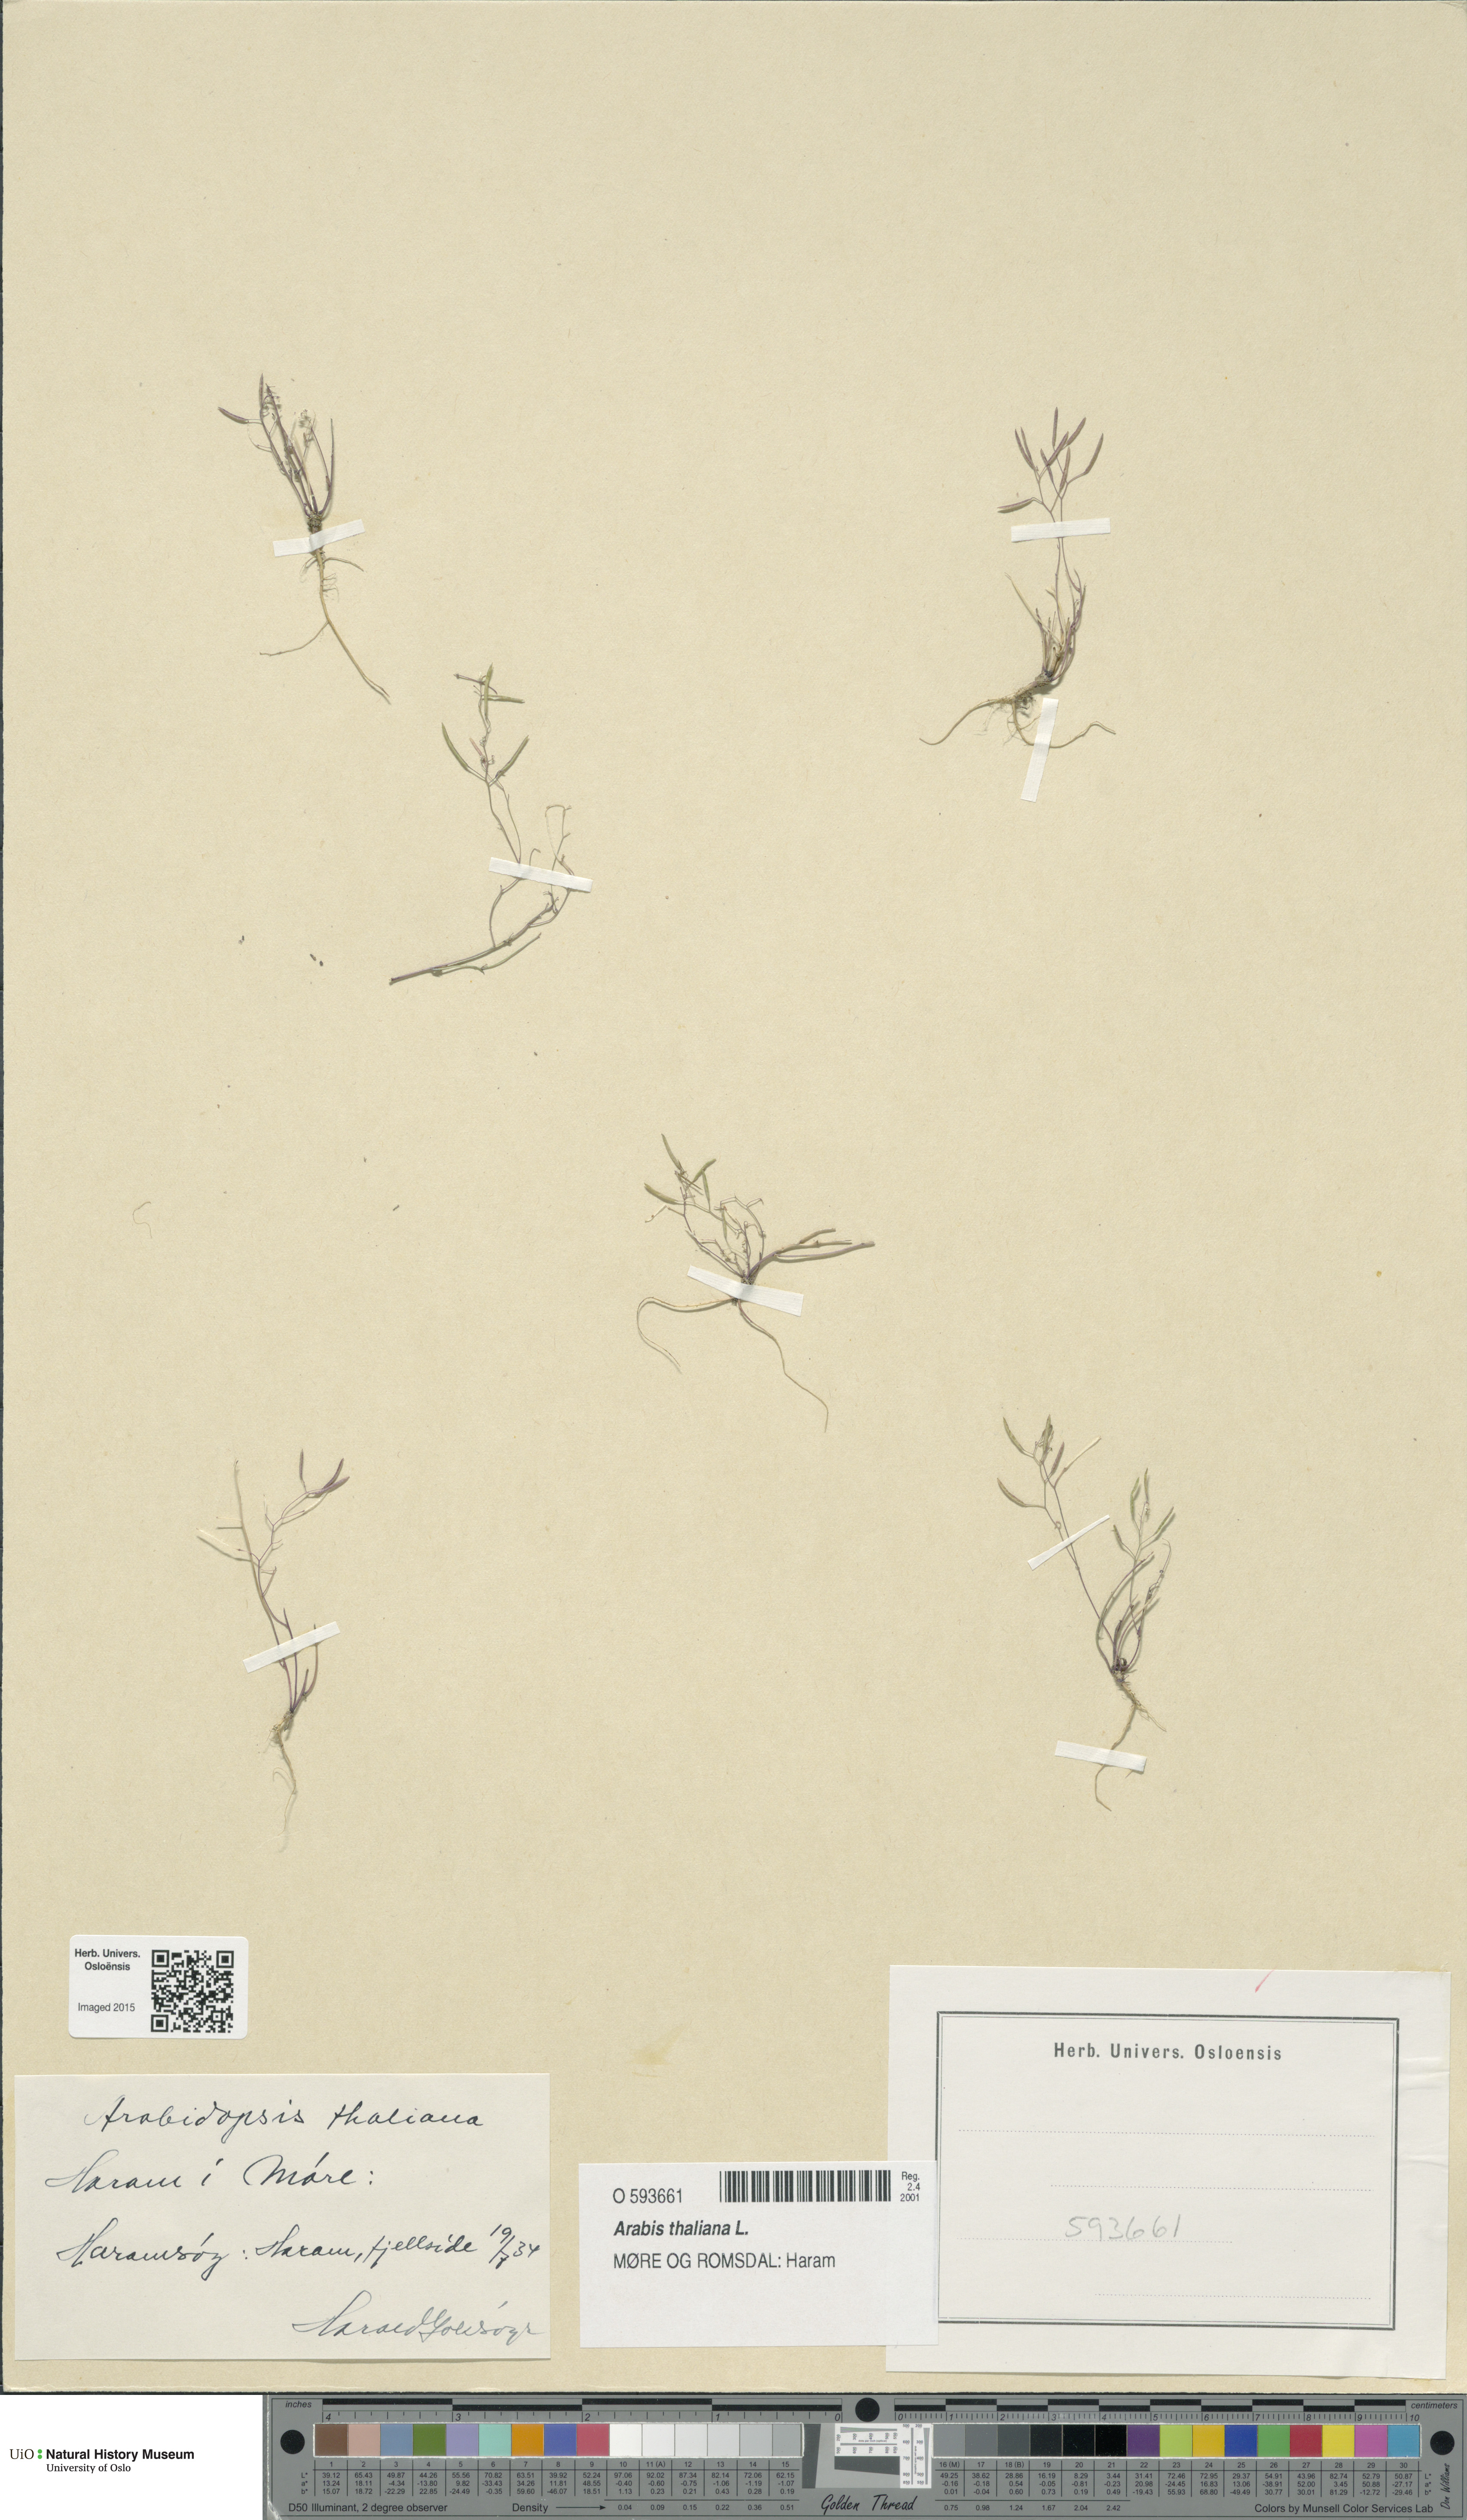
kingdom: Plantae
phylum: Tracheophyta
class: Magnoliopsida
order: Brassicales
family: Brassicaceae
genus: Arabidopsis
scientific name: Arabidopsis thaliana
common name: Thale cress
